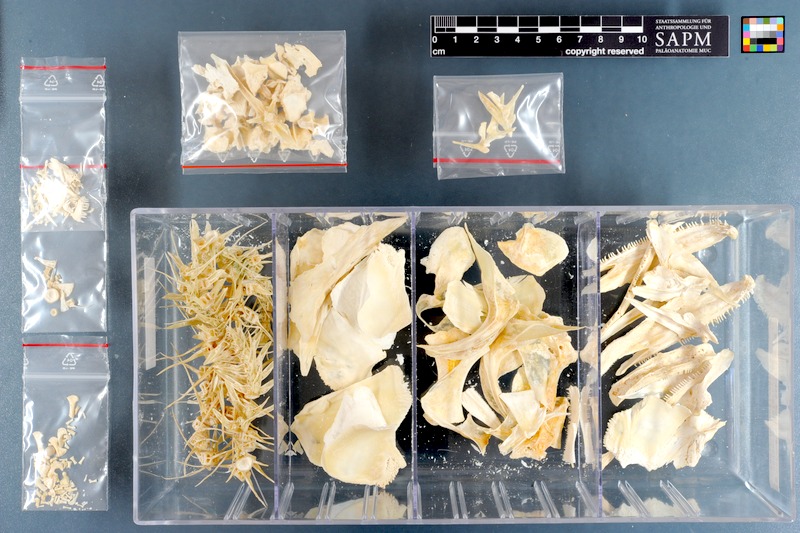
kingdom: Animalia
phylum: Chordata
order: Osteoglossiformes
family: Osteoglossidae
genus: Osteoglossum
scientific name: Osteoglossum bicirrhosum
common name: Arawana
